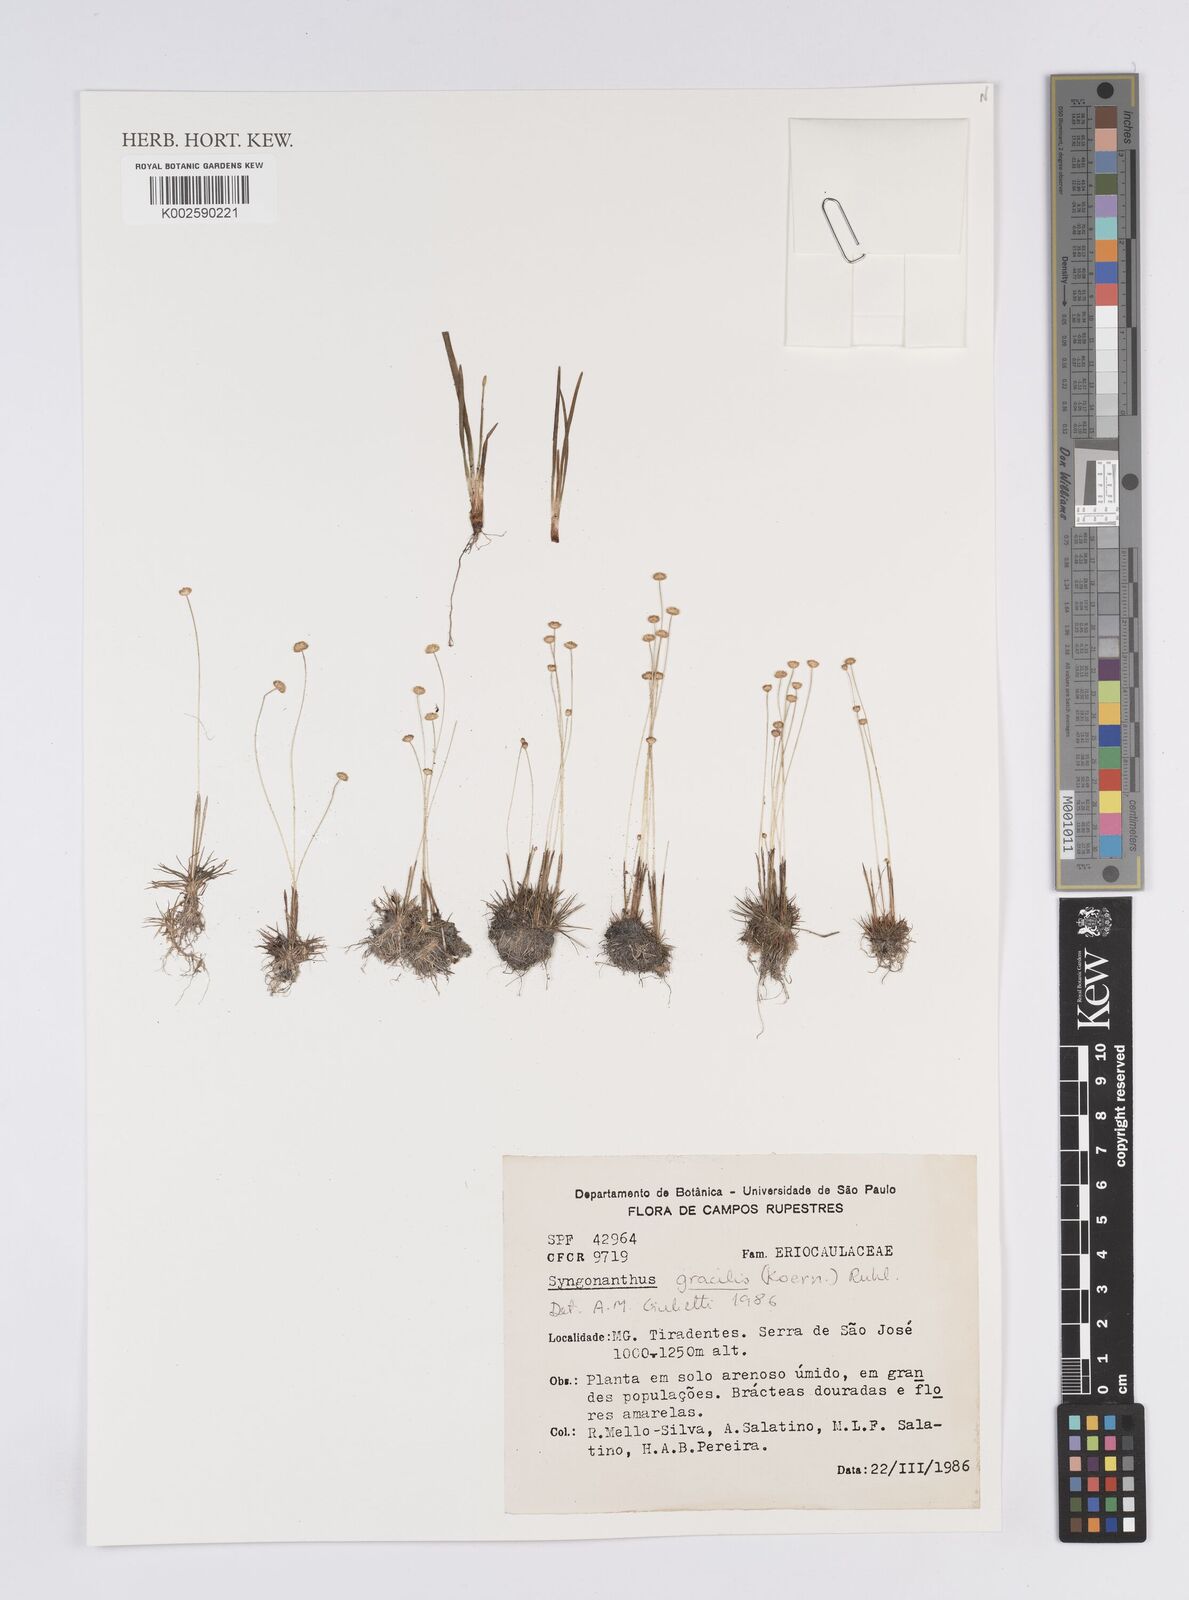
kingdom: Plantae
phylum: Tracheophyta
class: Liliopsida
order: Poales
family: Eriocaulaceae
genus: Syngonanthus
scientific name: Syngonanthus gracilis
